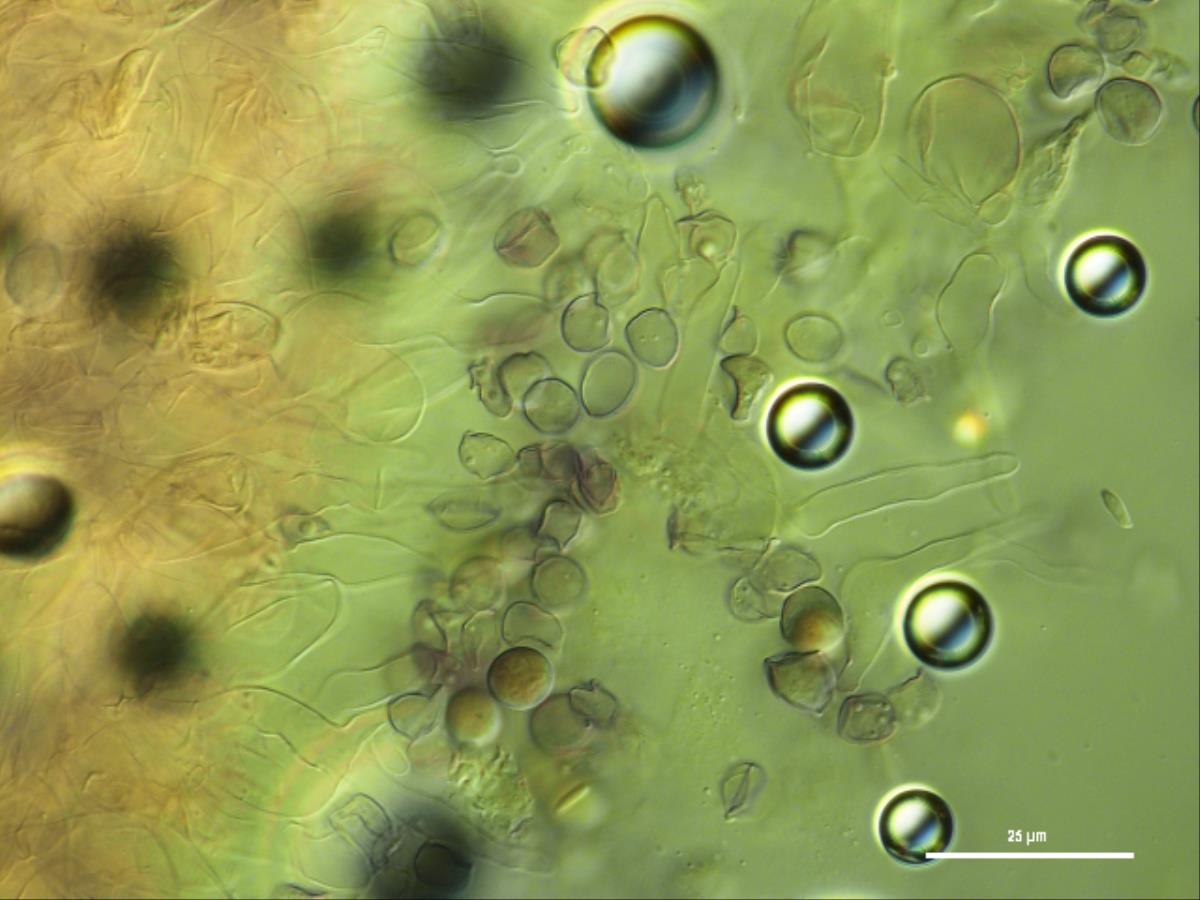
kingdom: Fungi
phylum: Basidiomycota
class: Agaricomycetes
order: Agaricales
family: Mycenaceae
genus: Mycena
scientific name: Mycena
